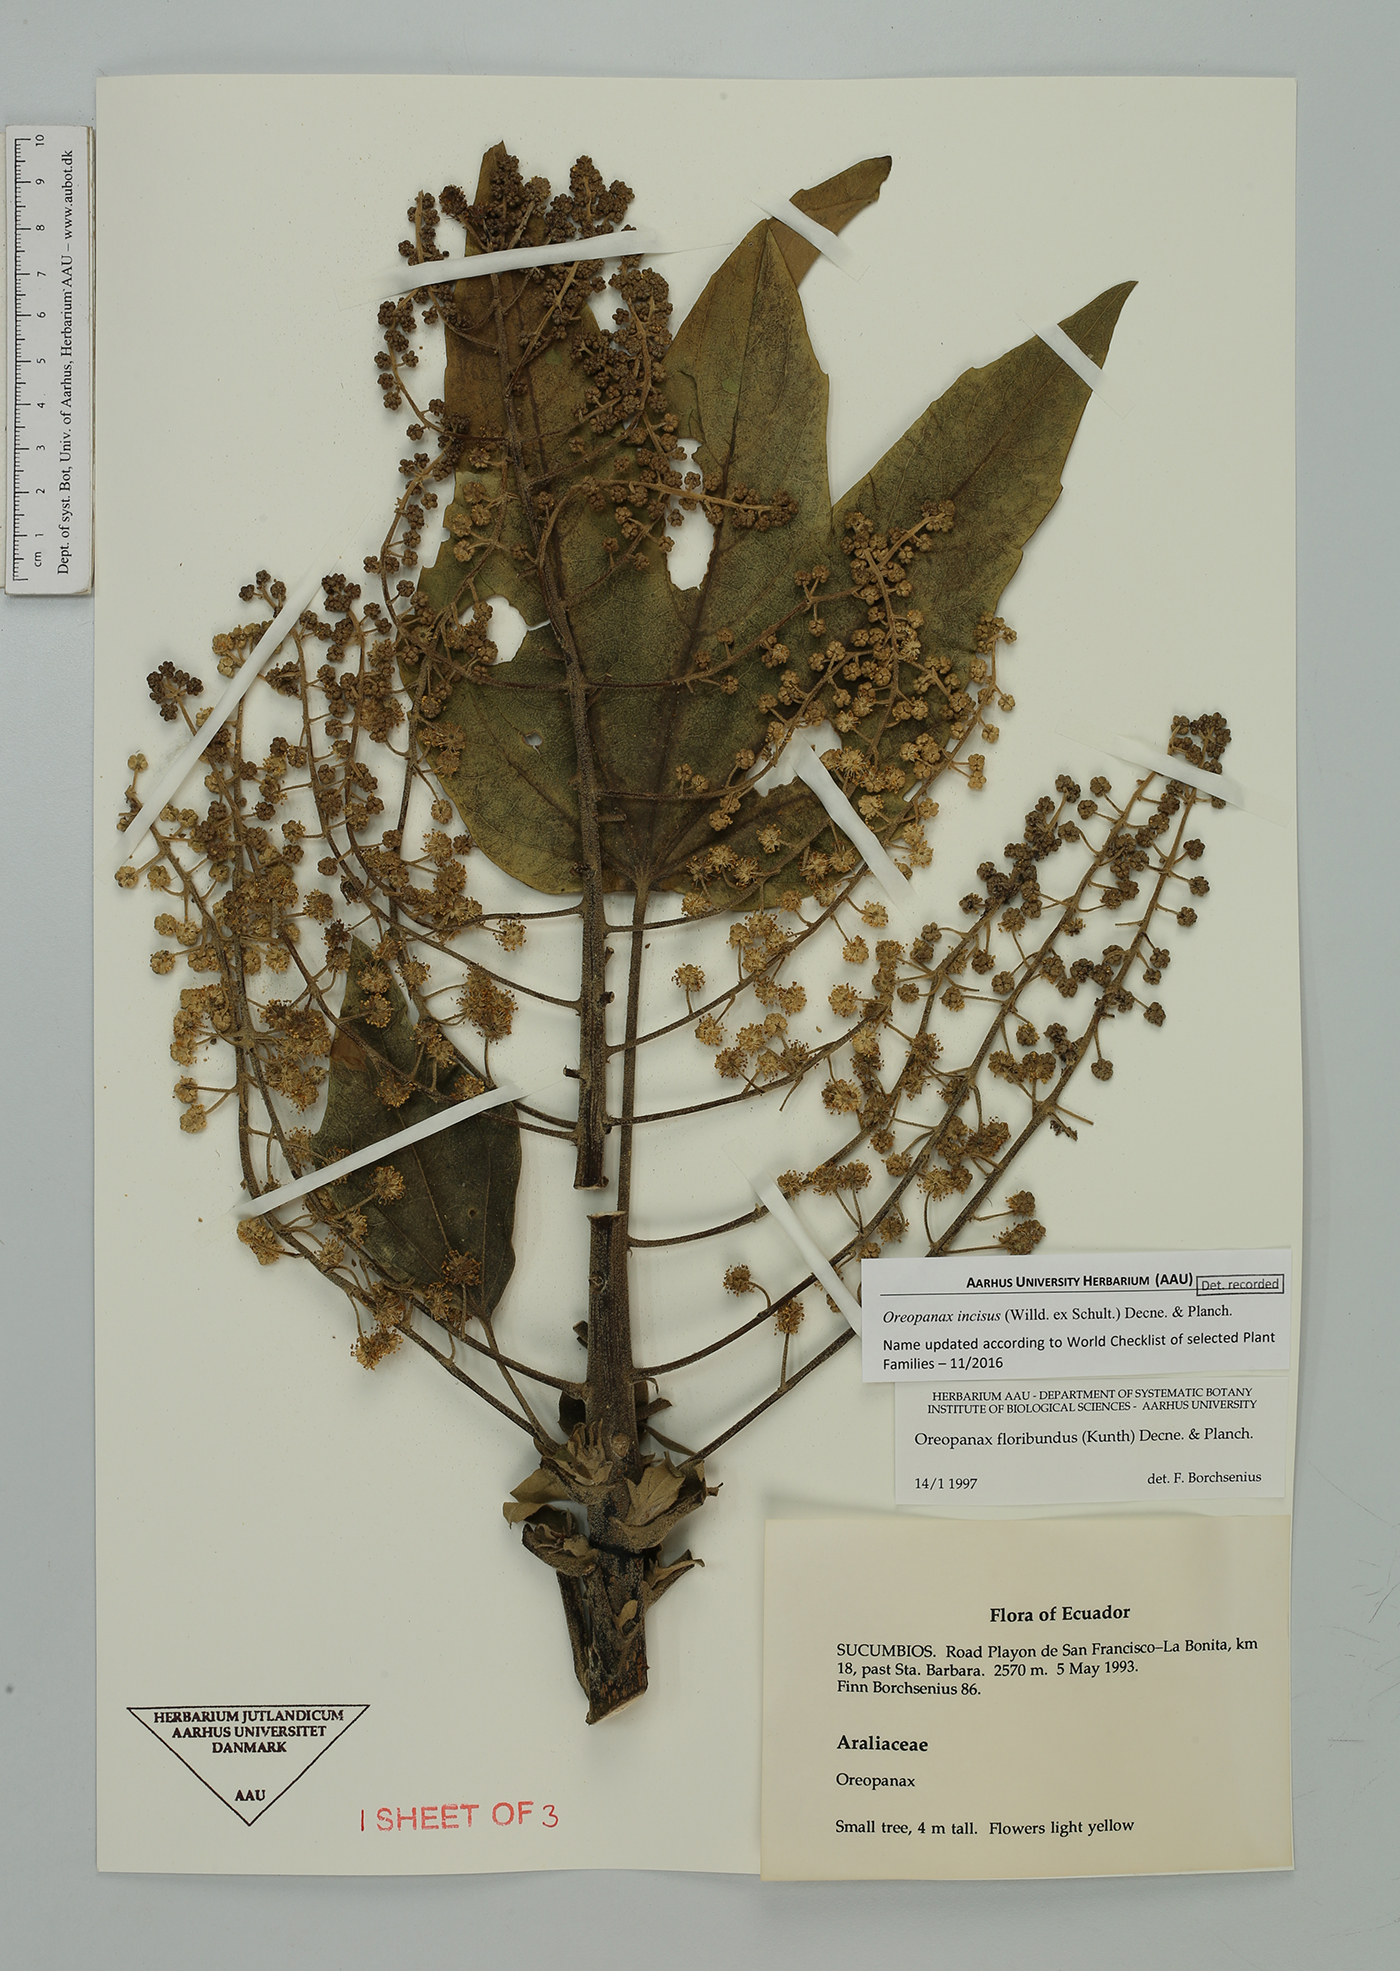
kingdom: Plantae
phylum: Tracheophyta
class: Magnoliopsida
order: Apiales
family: Araliaceae
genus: Oreopanax
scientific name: Oreopanax incisus
